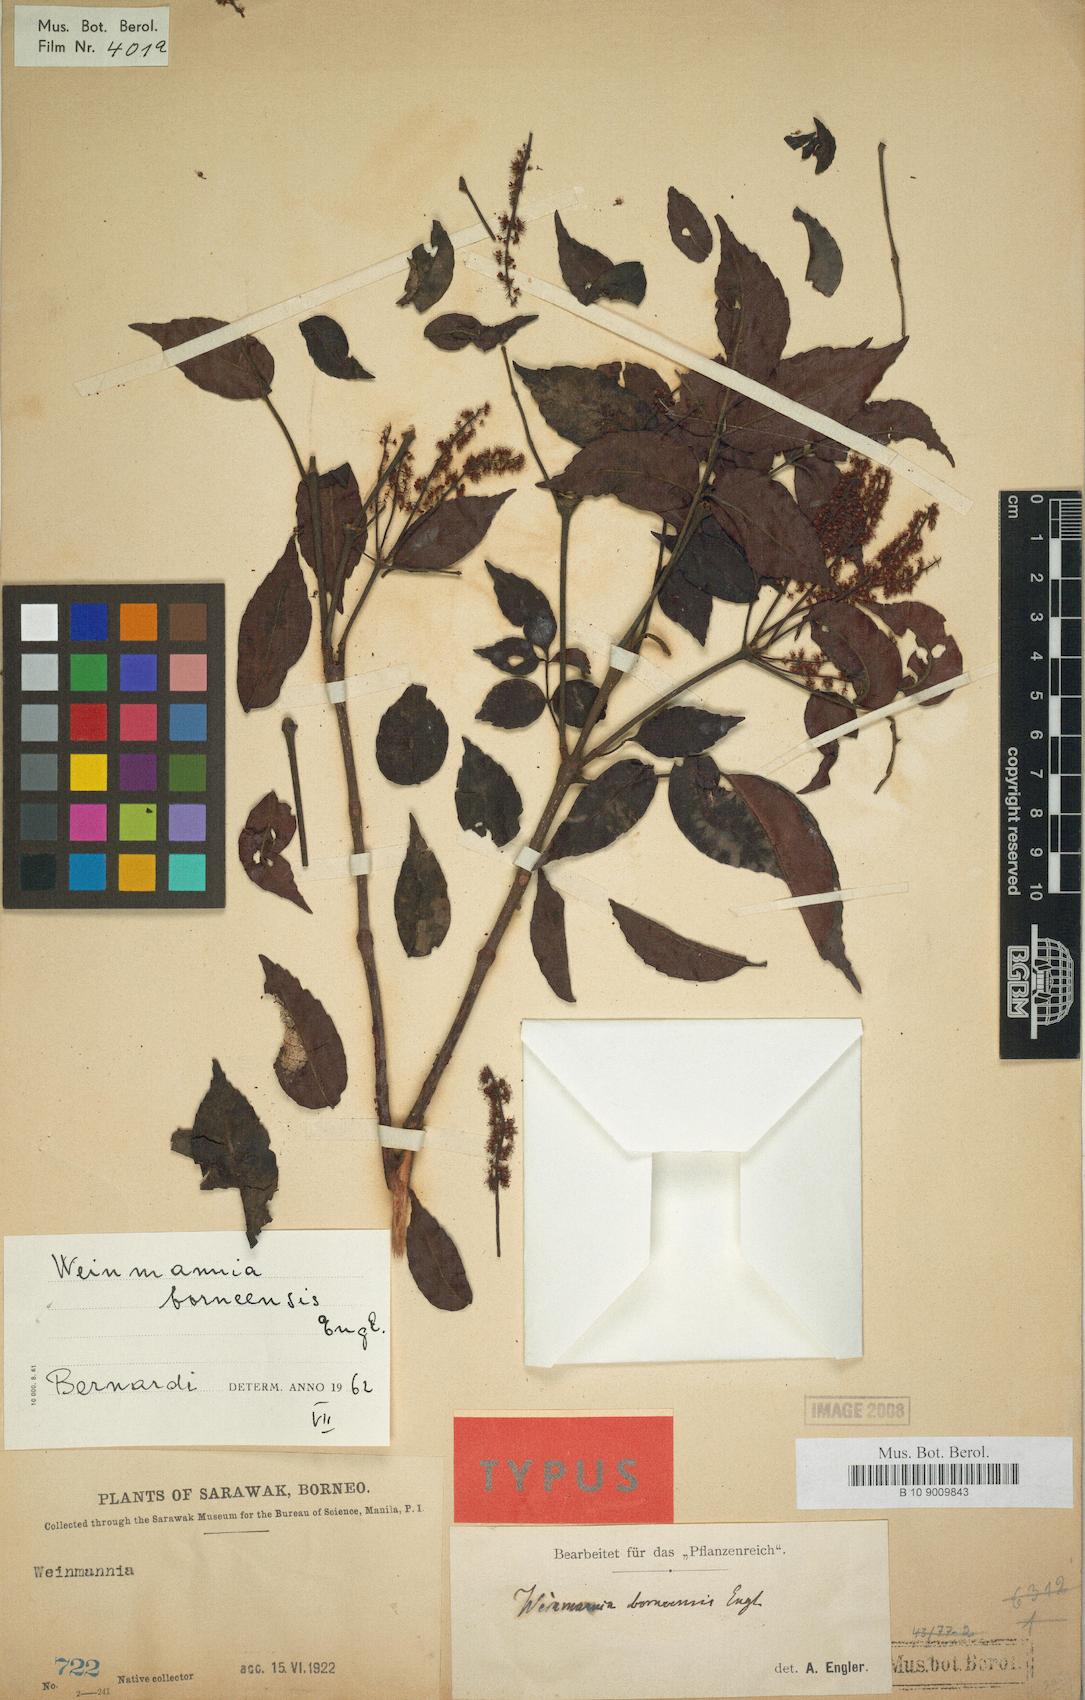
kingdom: Plantae
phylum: Tracheophyta
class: Magnoliopsida
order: Oxalidales
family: Cunoniaceae
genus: Pterophylla
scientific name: Pterophylla fraxinea
